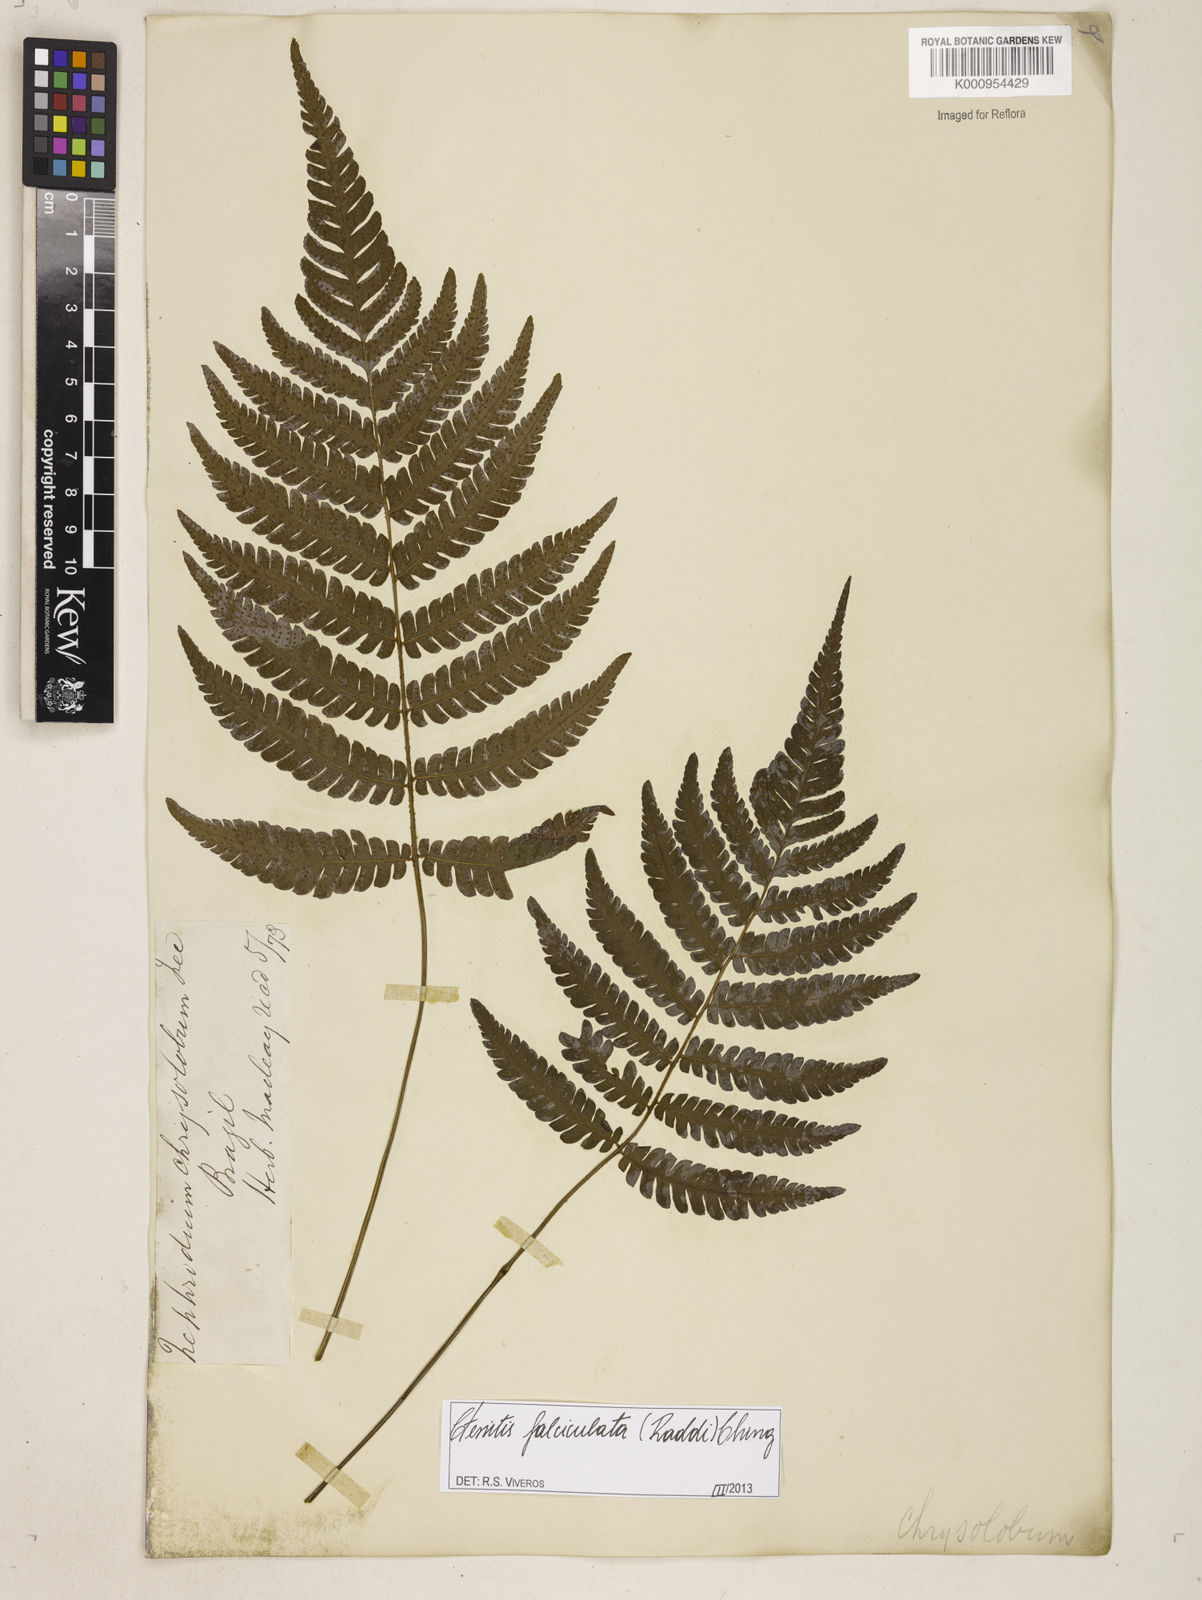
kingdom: Plantae
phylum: Tracheophyta
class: Polypodiopsida
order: Polypodiales
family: Dryopteridaceae
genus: Ctenitis
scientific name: Ctenitis falciculata
